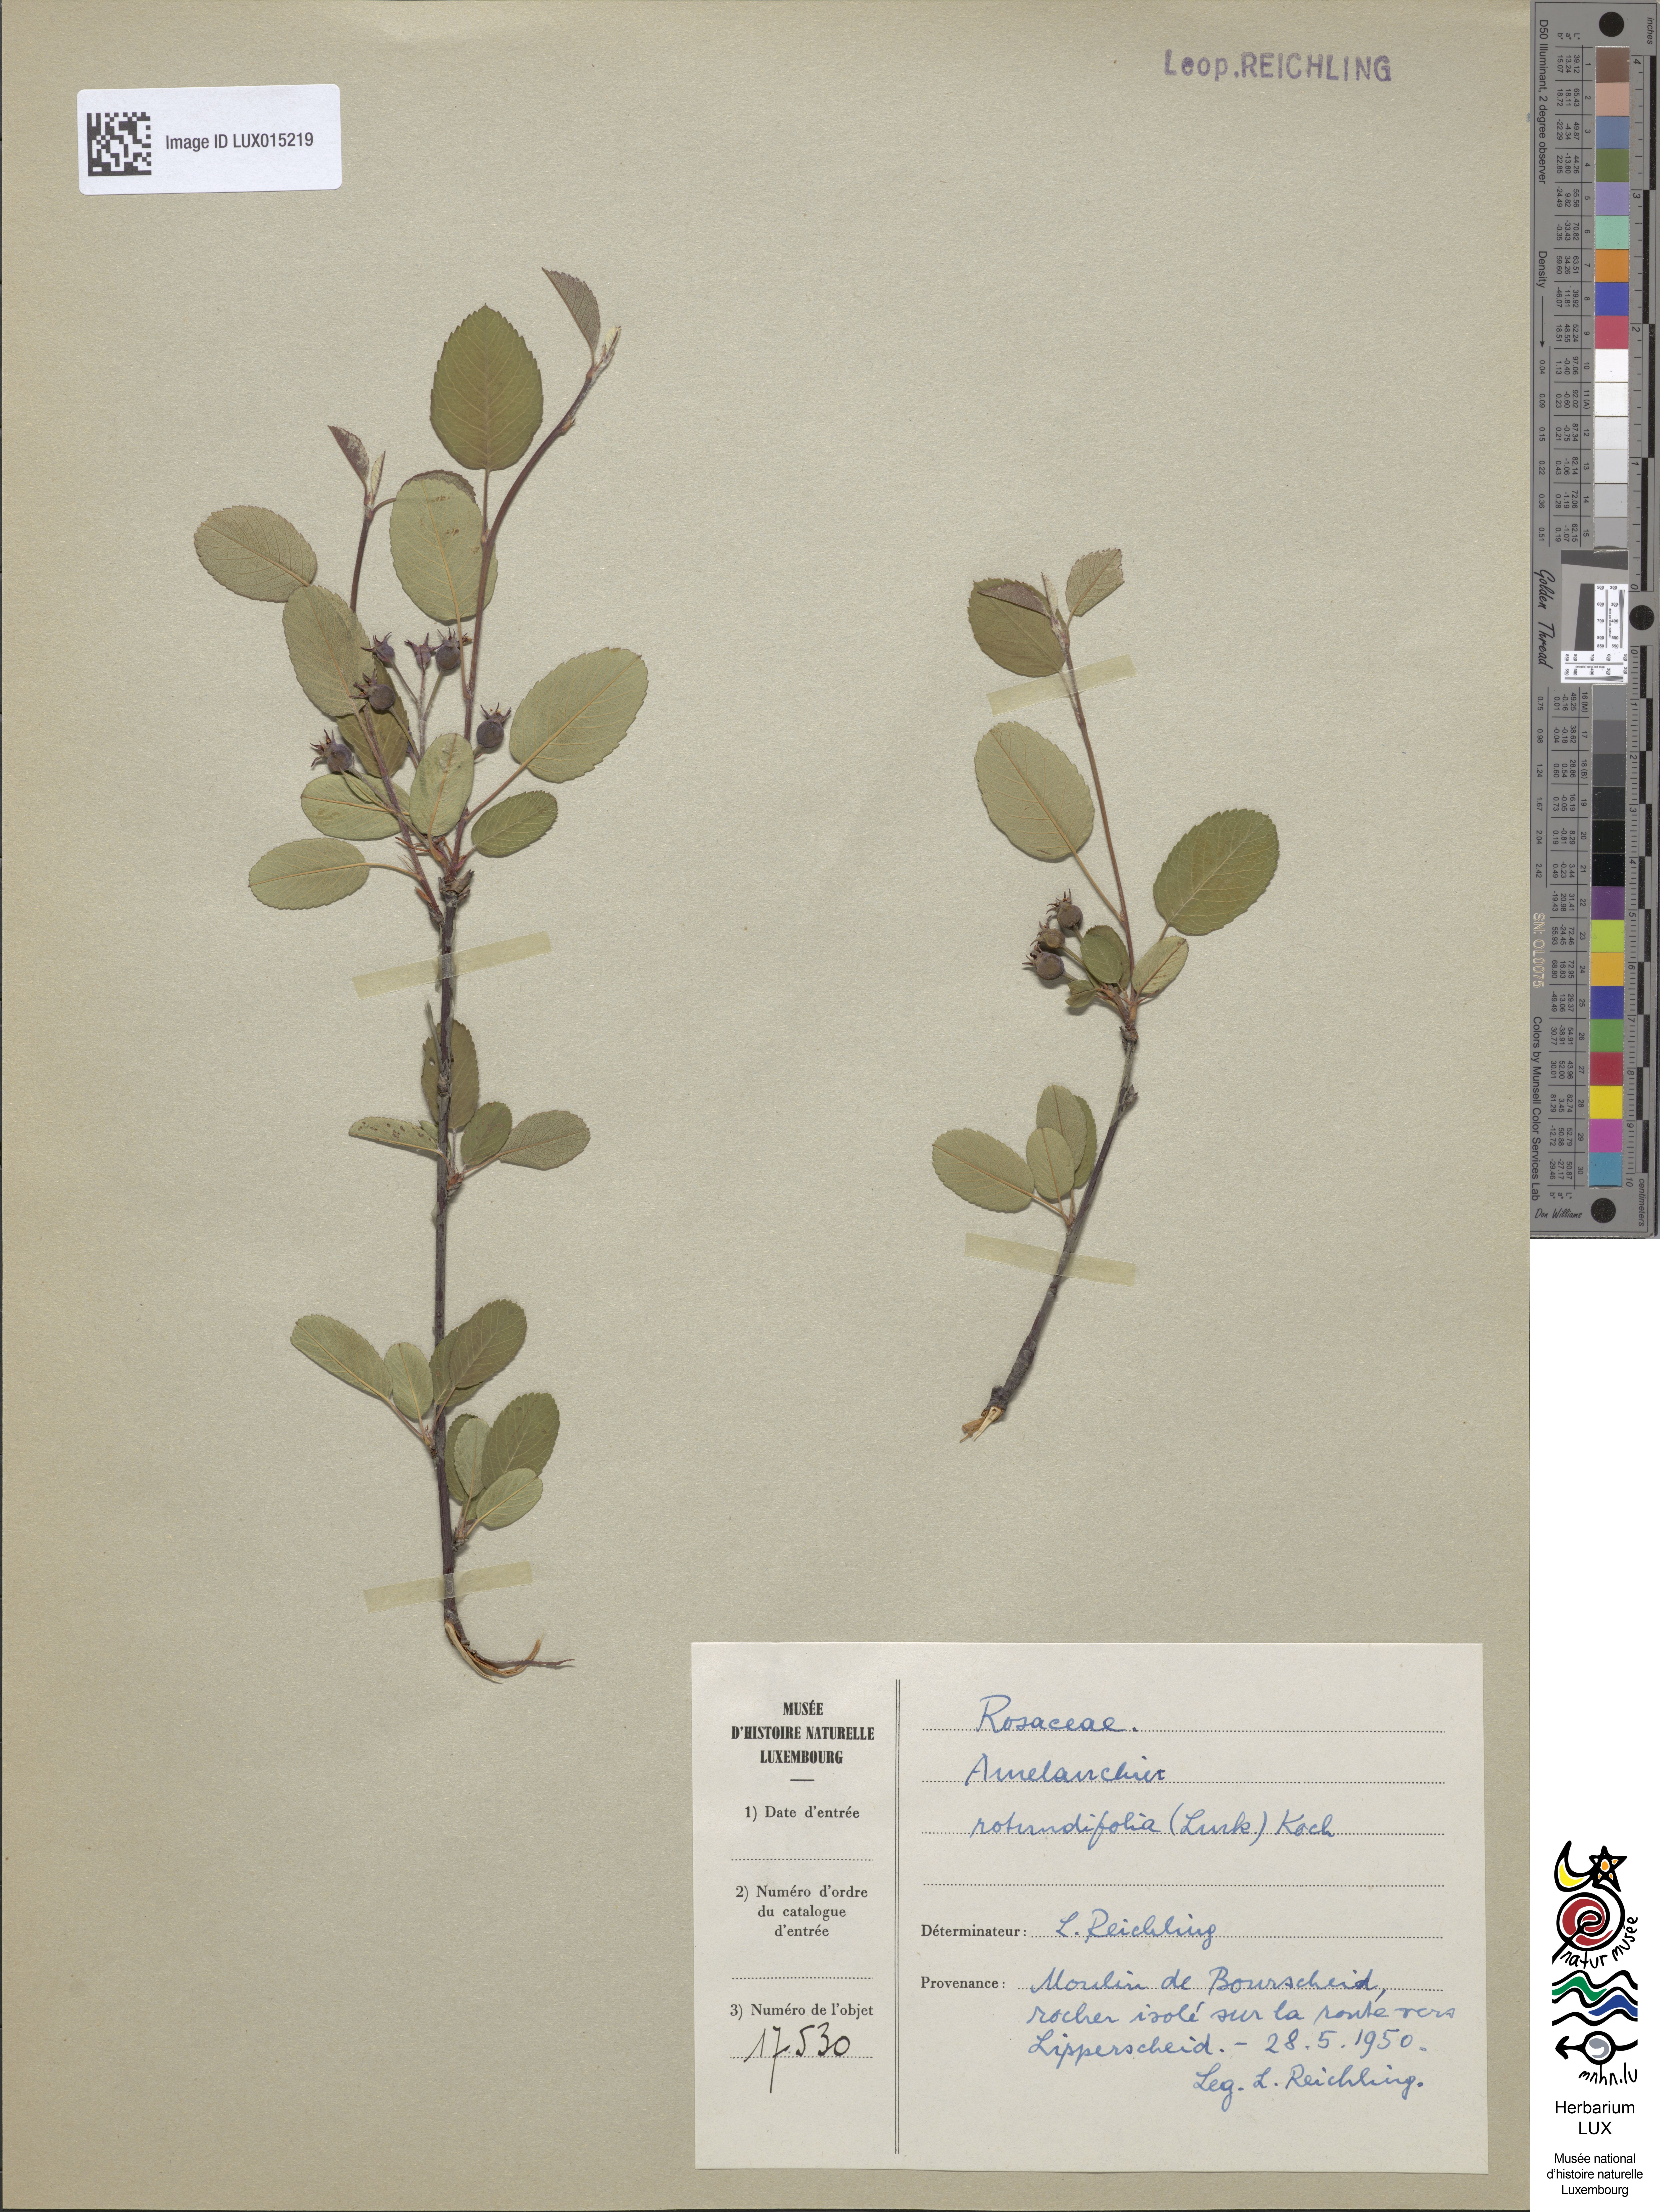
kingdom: Plantae
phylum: Tracheophyta
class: Magnoliopsida
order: Rosales
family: Rosaceae
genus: Amelanchier
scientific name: Amelanchier ovalis
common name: Serviceberry
